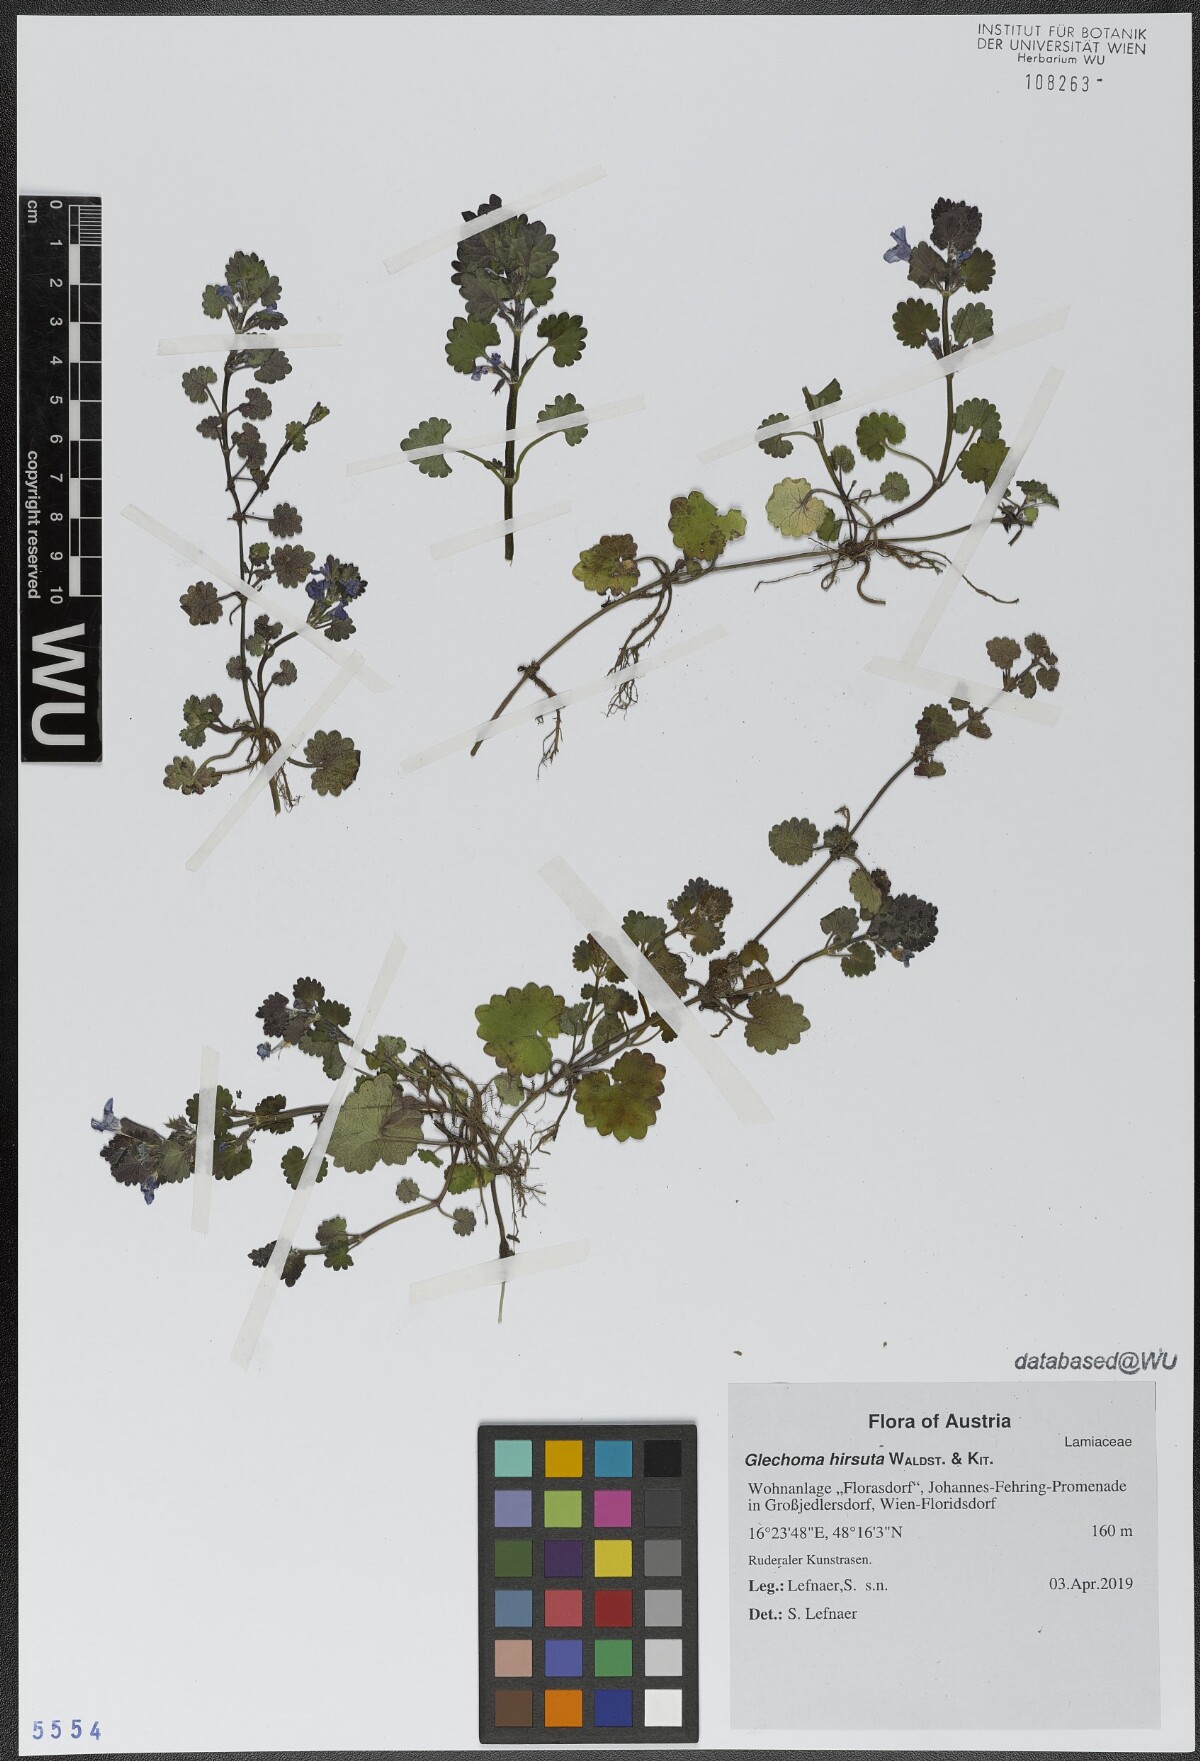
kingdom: Plantae
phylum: Tracheophyta
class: Magnoliopsida
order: Lamiales
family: Lamiaceae
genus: Glechoma
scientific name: Glechoma hirsuta
